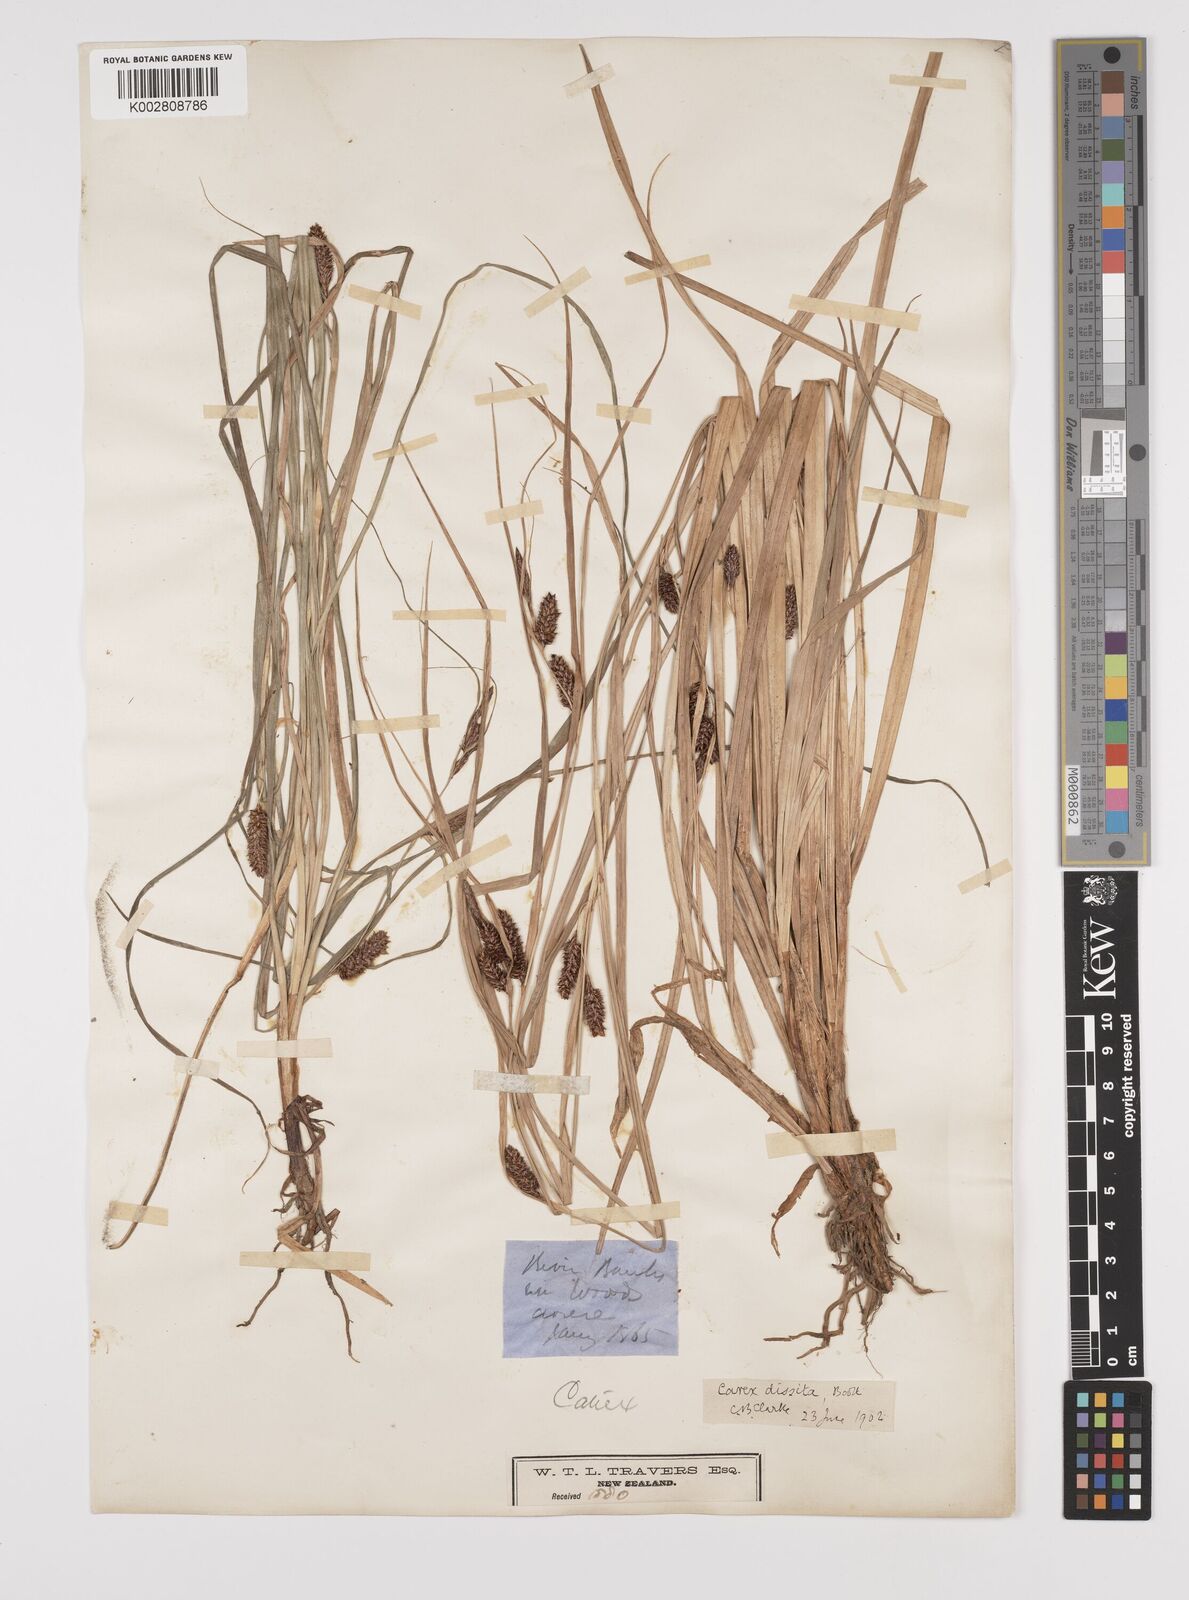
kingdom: Plantae
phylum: Tracheophyta
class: Liliopsida
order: Poales
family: Cyperaceae
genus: Carex
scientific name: Carex dissita
